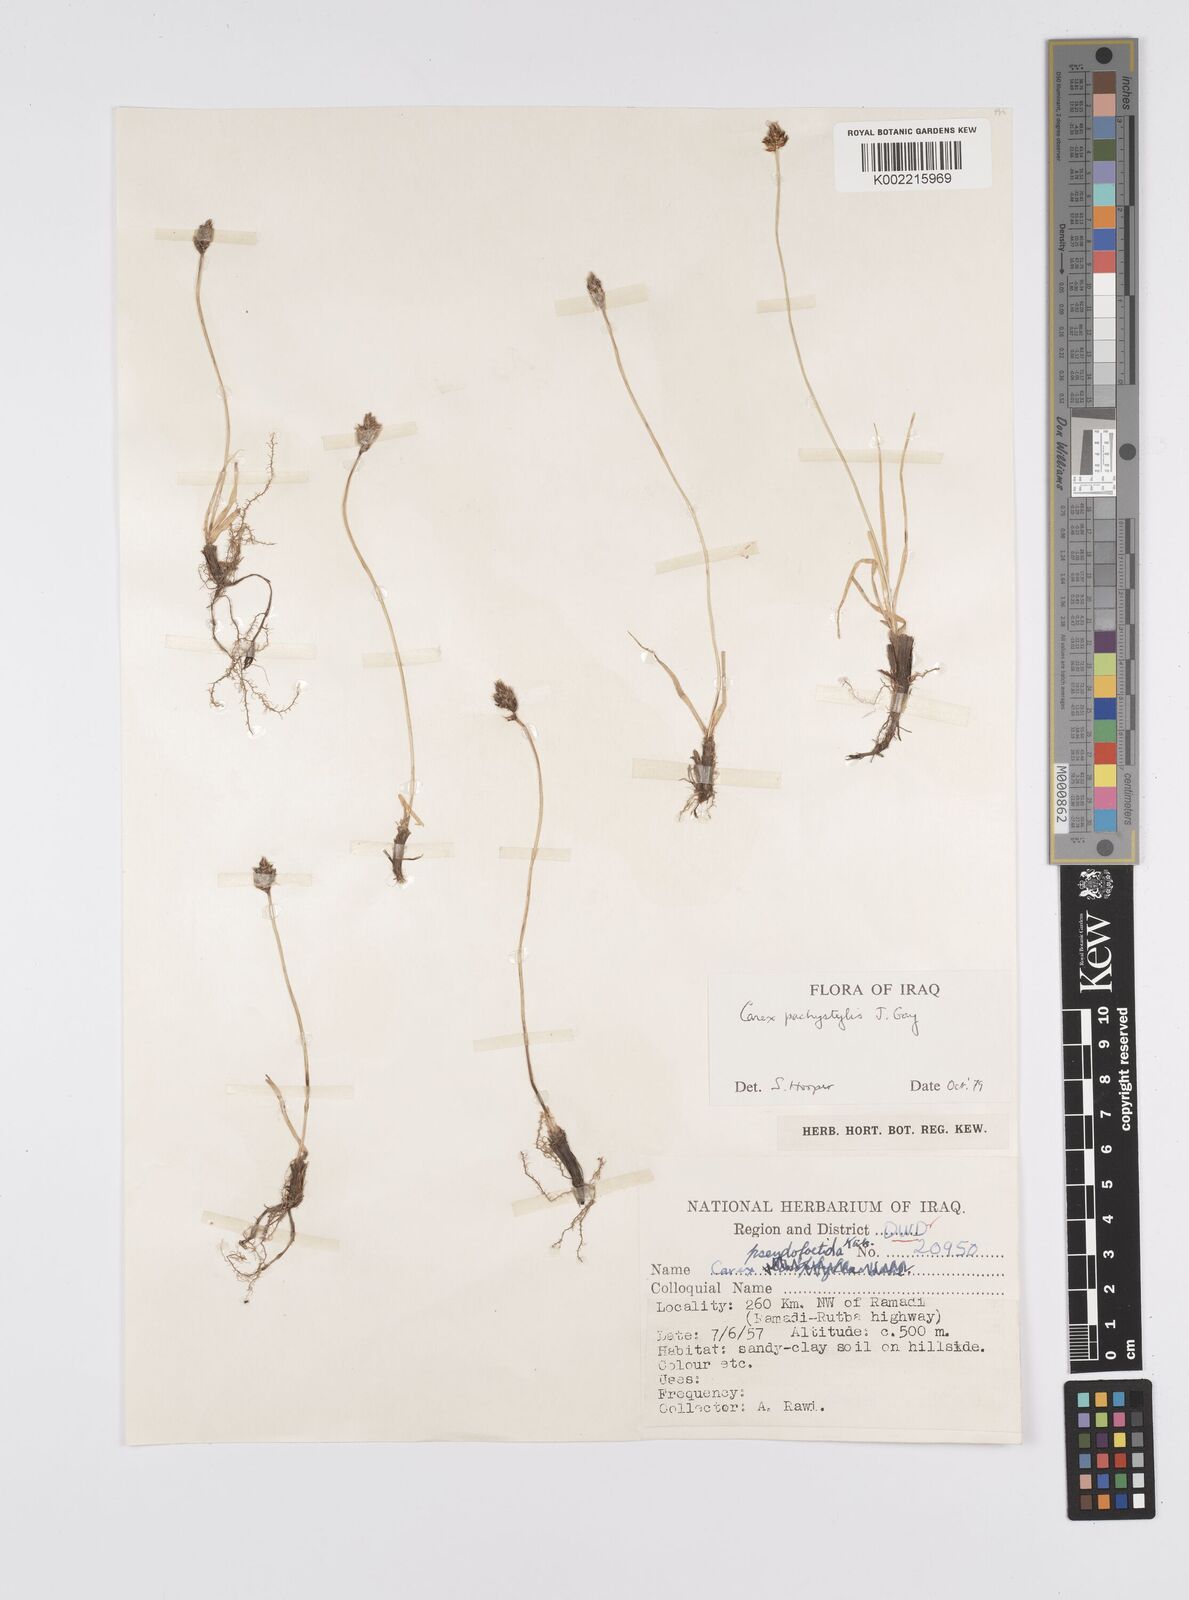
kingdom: Plantae
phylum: Tracheophyta
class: Liliopsida
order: Poales
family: Cyperaceae
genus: Carex
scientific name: Carex pachystylis
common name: Thick-stem sedge
